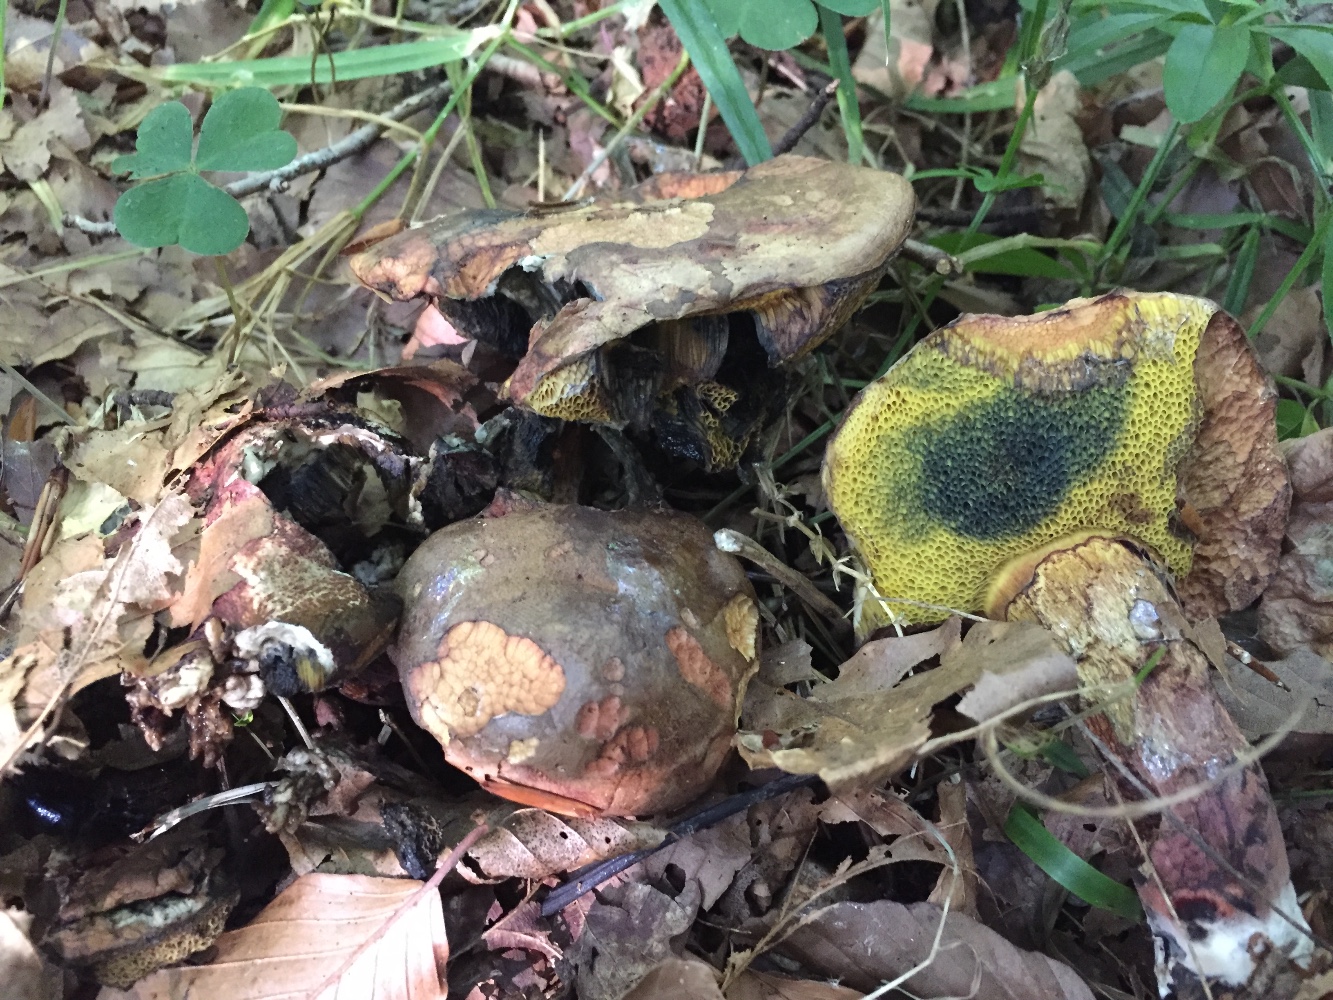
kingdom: Fungi
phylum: Basidiomycota
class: Agaricomycetes
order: Boletales
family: Boletaceae
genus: Cyanoboletus
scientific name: Cyanoboletus pulverulentus
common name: sortblånende rørhat
